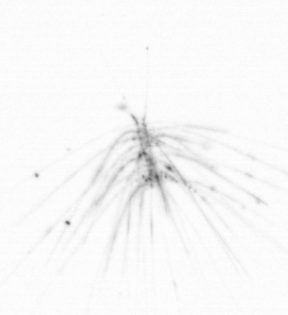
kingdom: Chromista
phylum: Ochrophyta
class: Bacillariophyceae
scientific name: Bacillariophyceae
